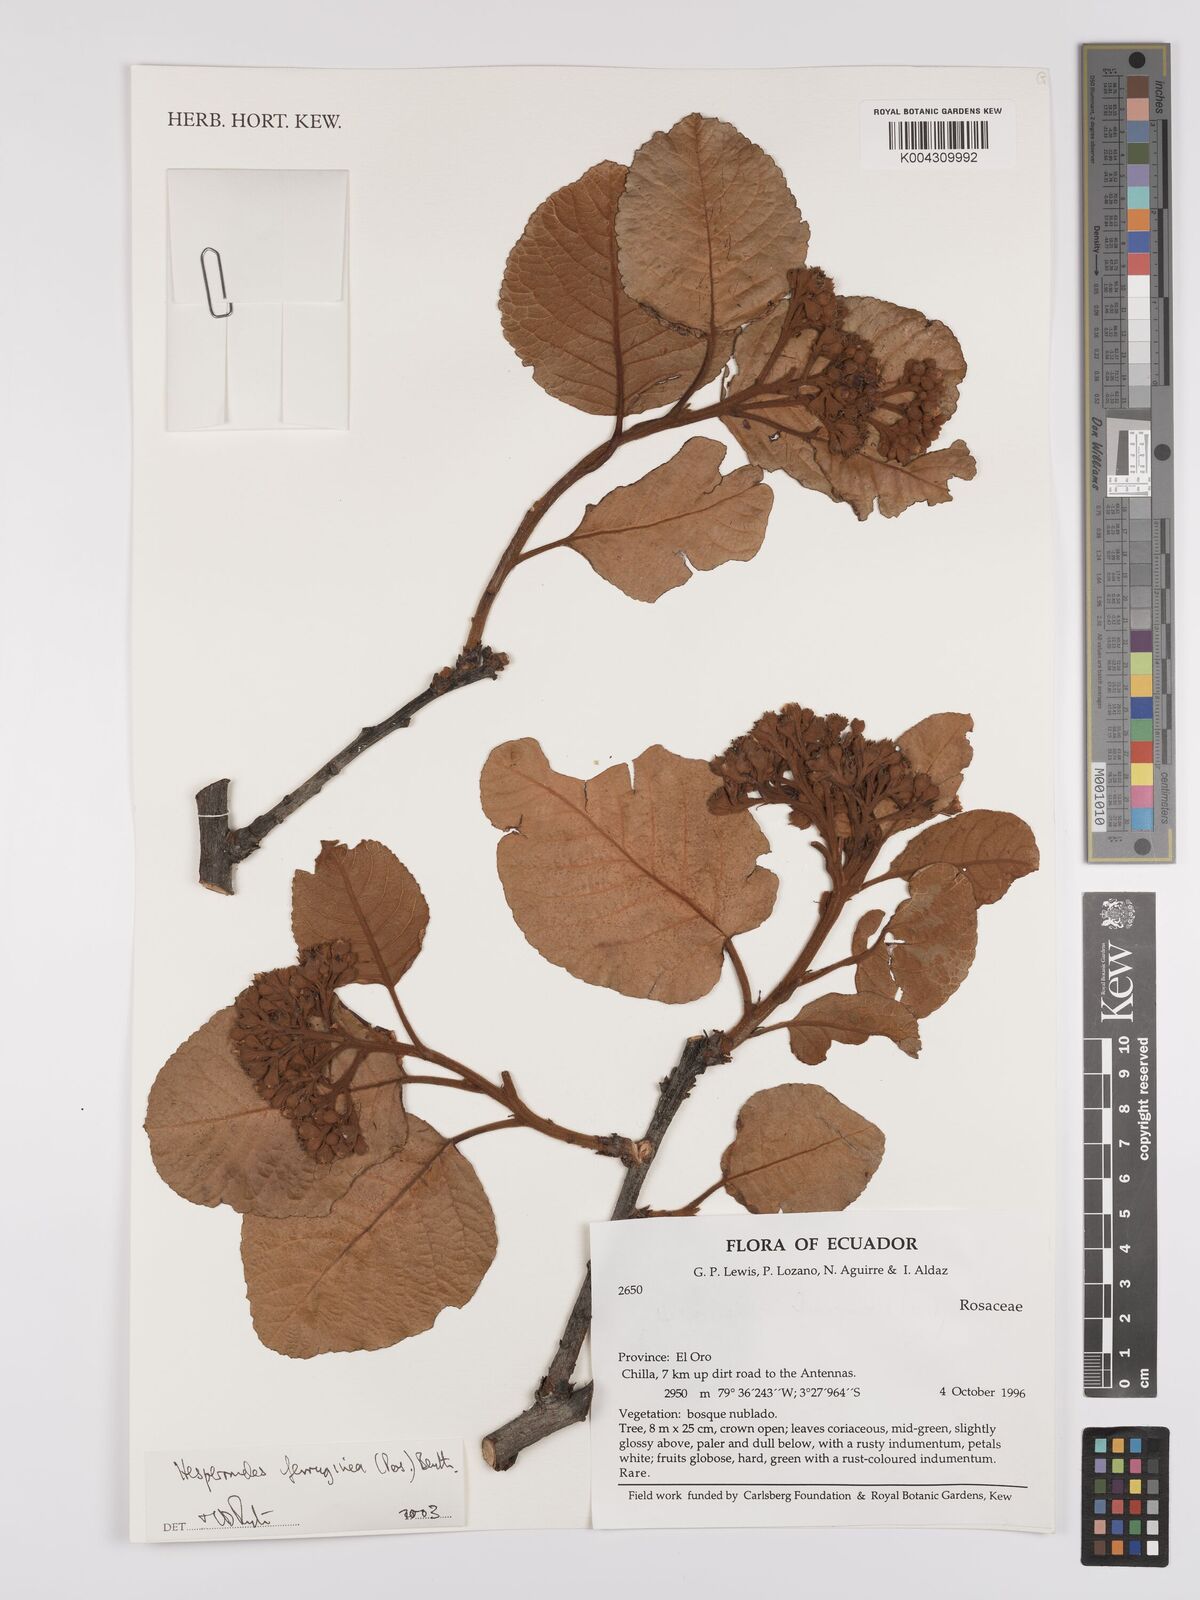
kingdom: Plantae
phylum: Tracheophyta
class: Magnoliopsida
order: Rosales
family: Rosaceae
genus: Hesperomeles
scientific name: Hesperomeles ferruginea
